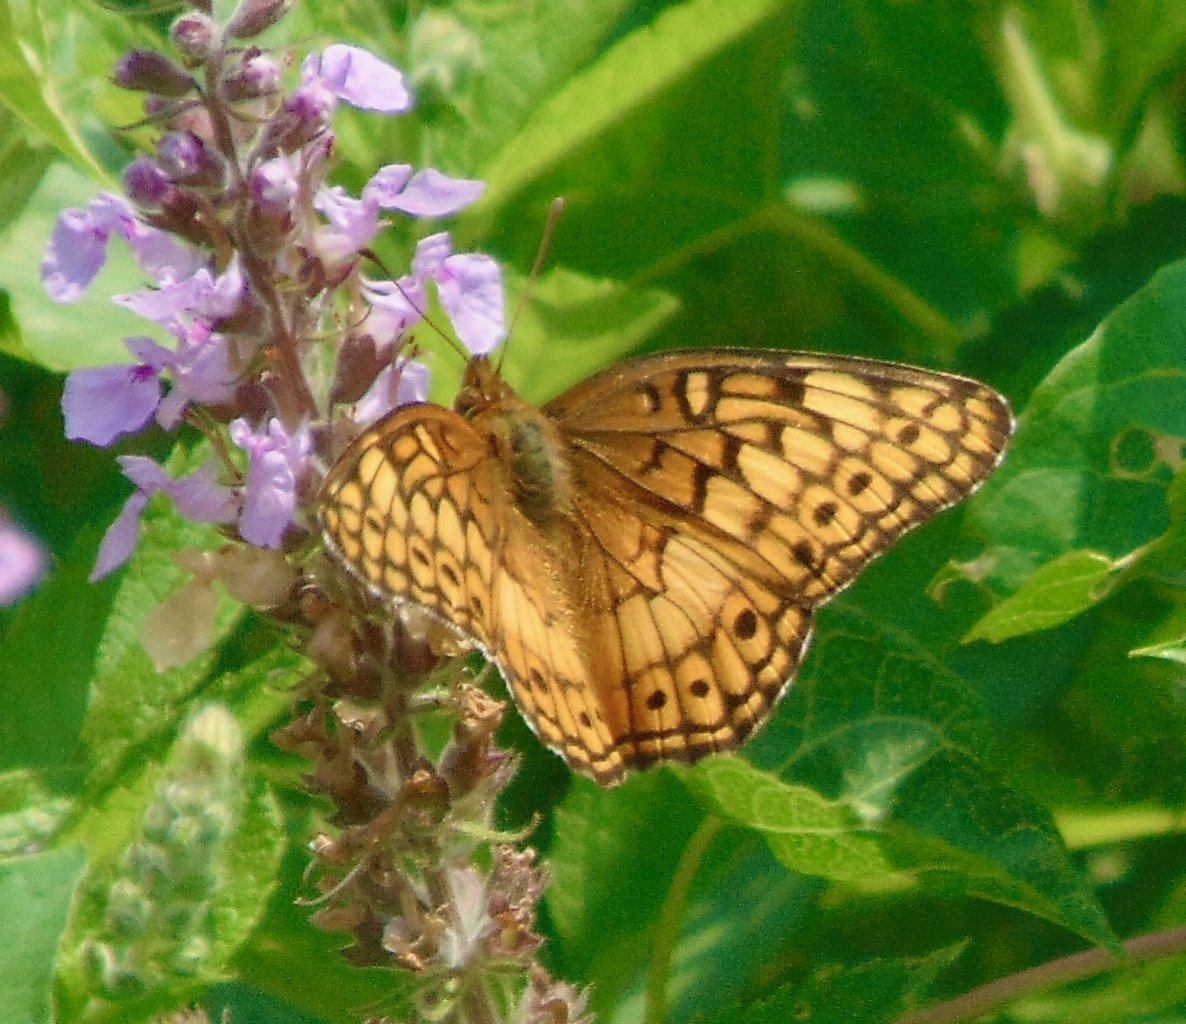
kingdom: Animalia
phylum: Arthropoda
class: Insecta
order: Lepidoptera
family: Nymphalidae
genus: Euptoieta
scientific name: Euptoieta claudia
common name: Variegated Fritillary
